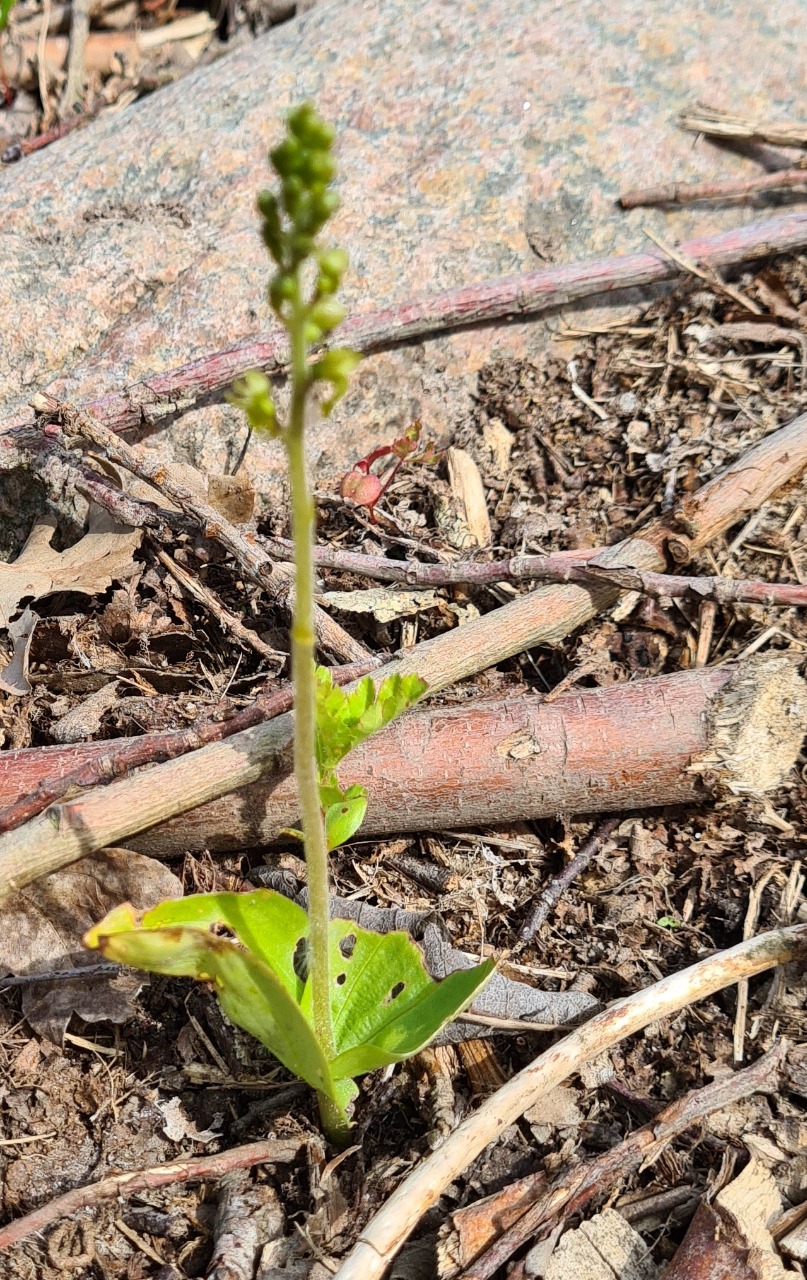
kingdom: Plantae
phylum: Tracheophyta
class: Liliopsida
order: Asparagales
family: Orchidaceae
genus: Neottia
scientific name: Neottia ovata
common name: Ægbladet fliglæbe
